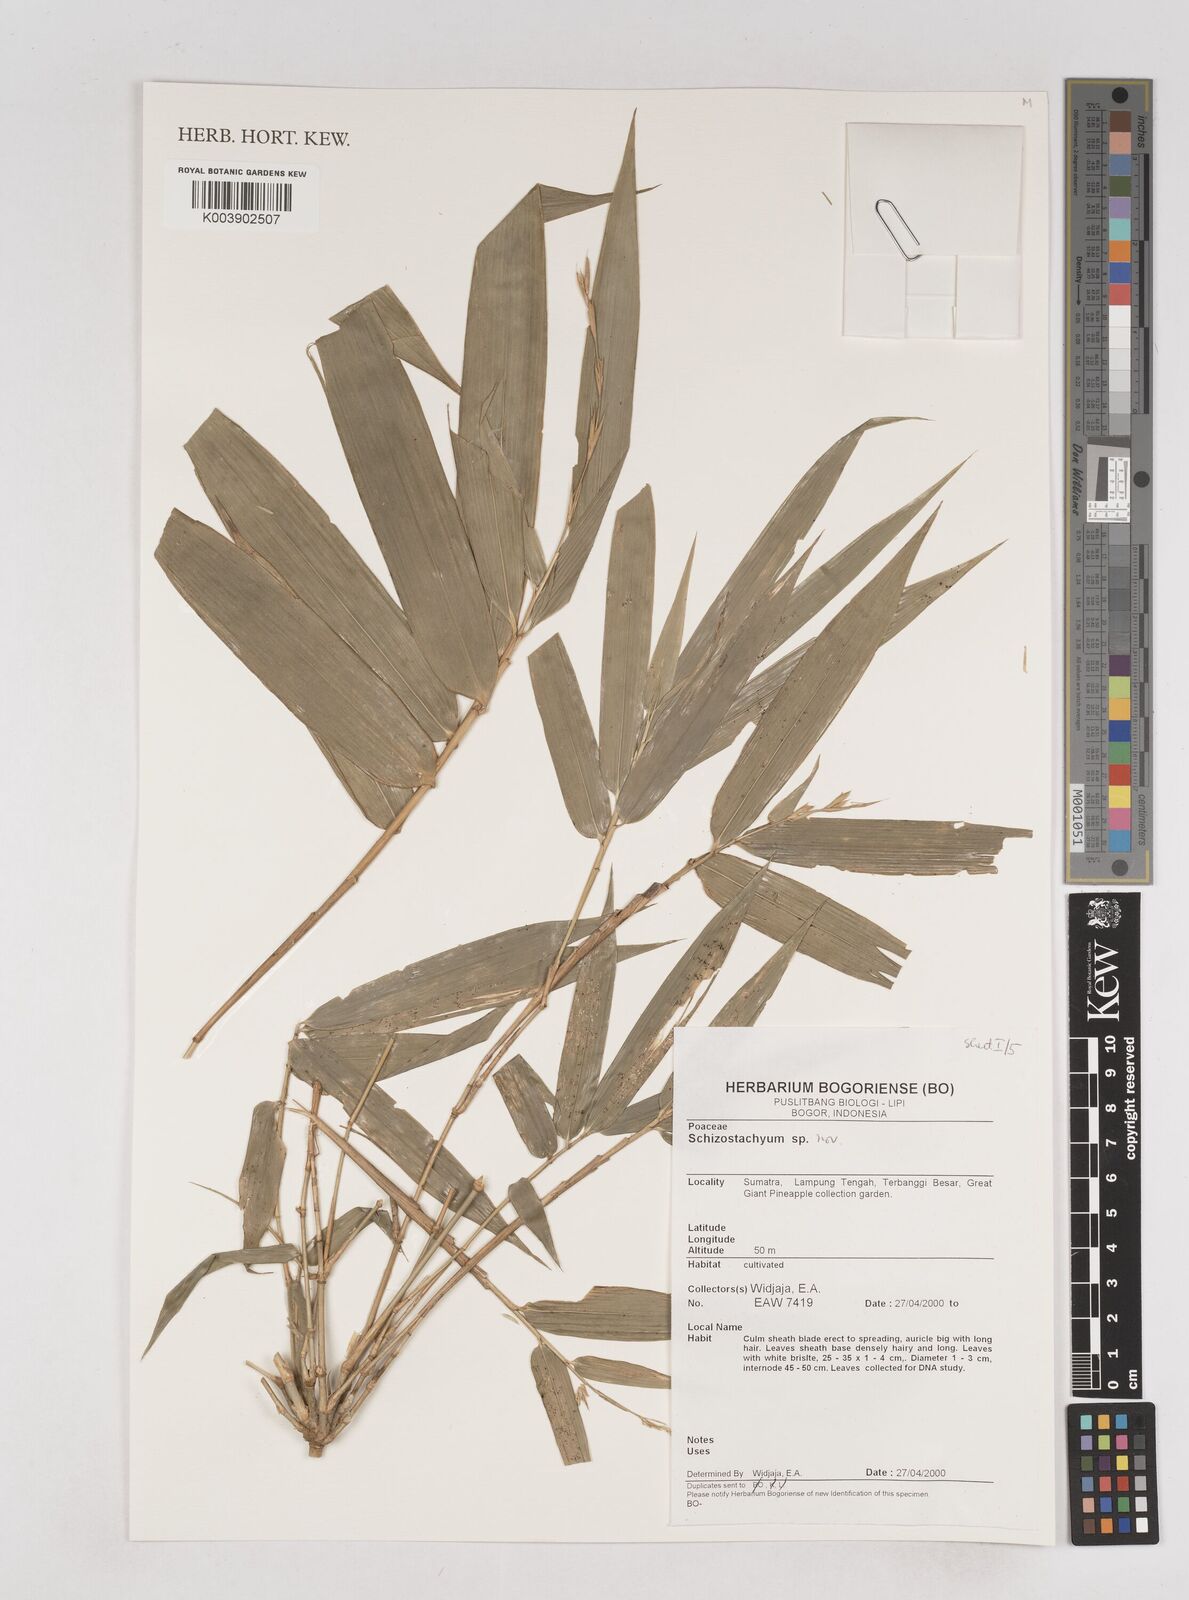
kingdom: Plantae
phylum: Tracheophyta
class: Liliopsida
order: Poales
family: Poaceae
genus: Schizostachyum
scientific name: Schizostachyum
